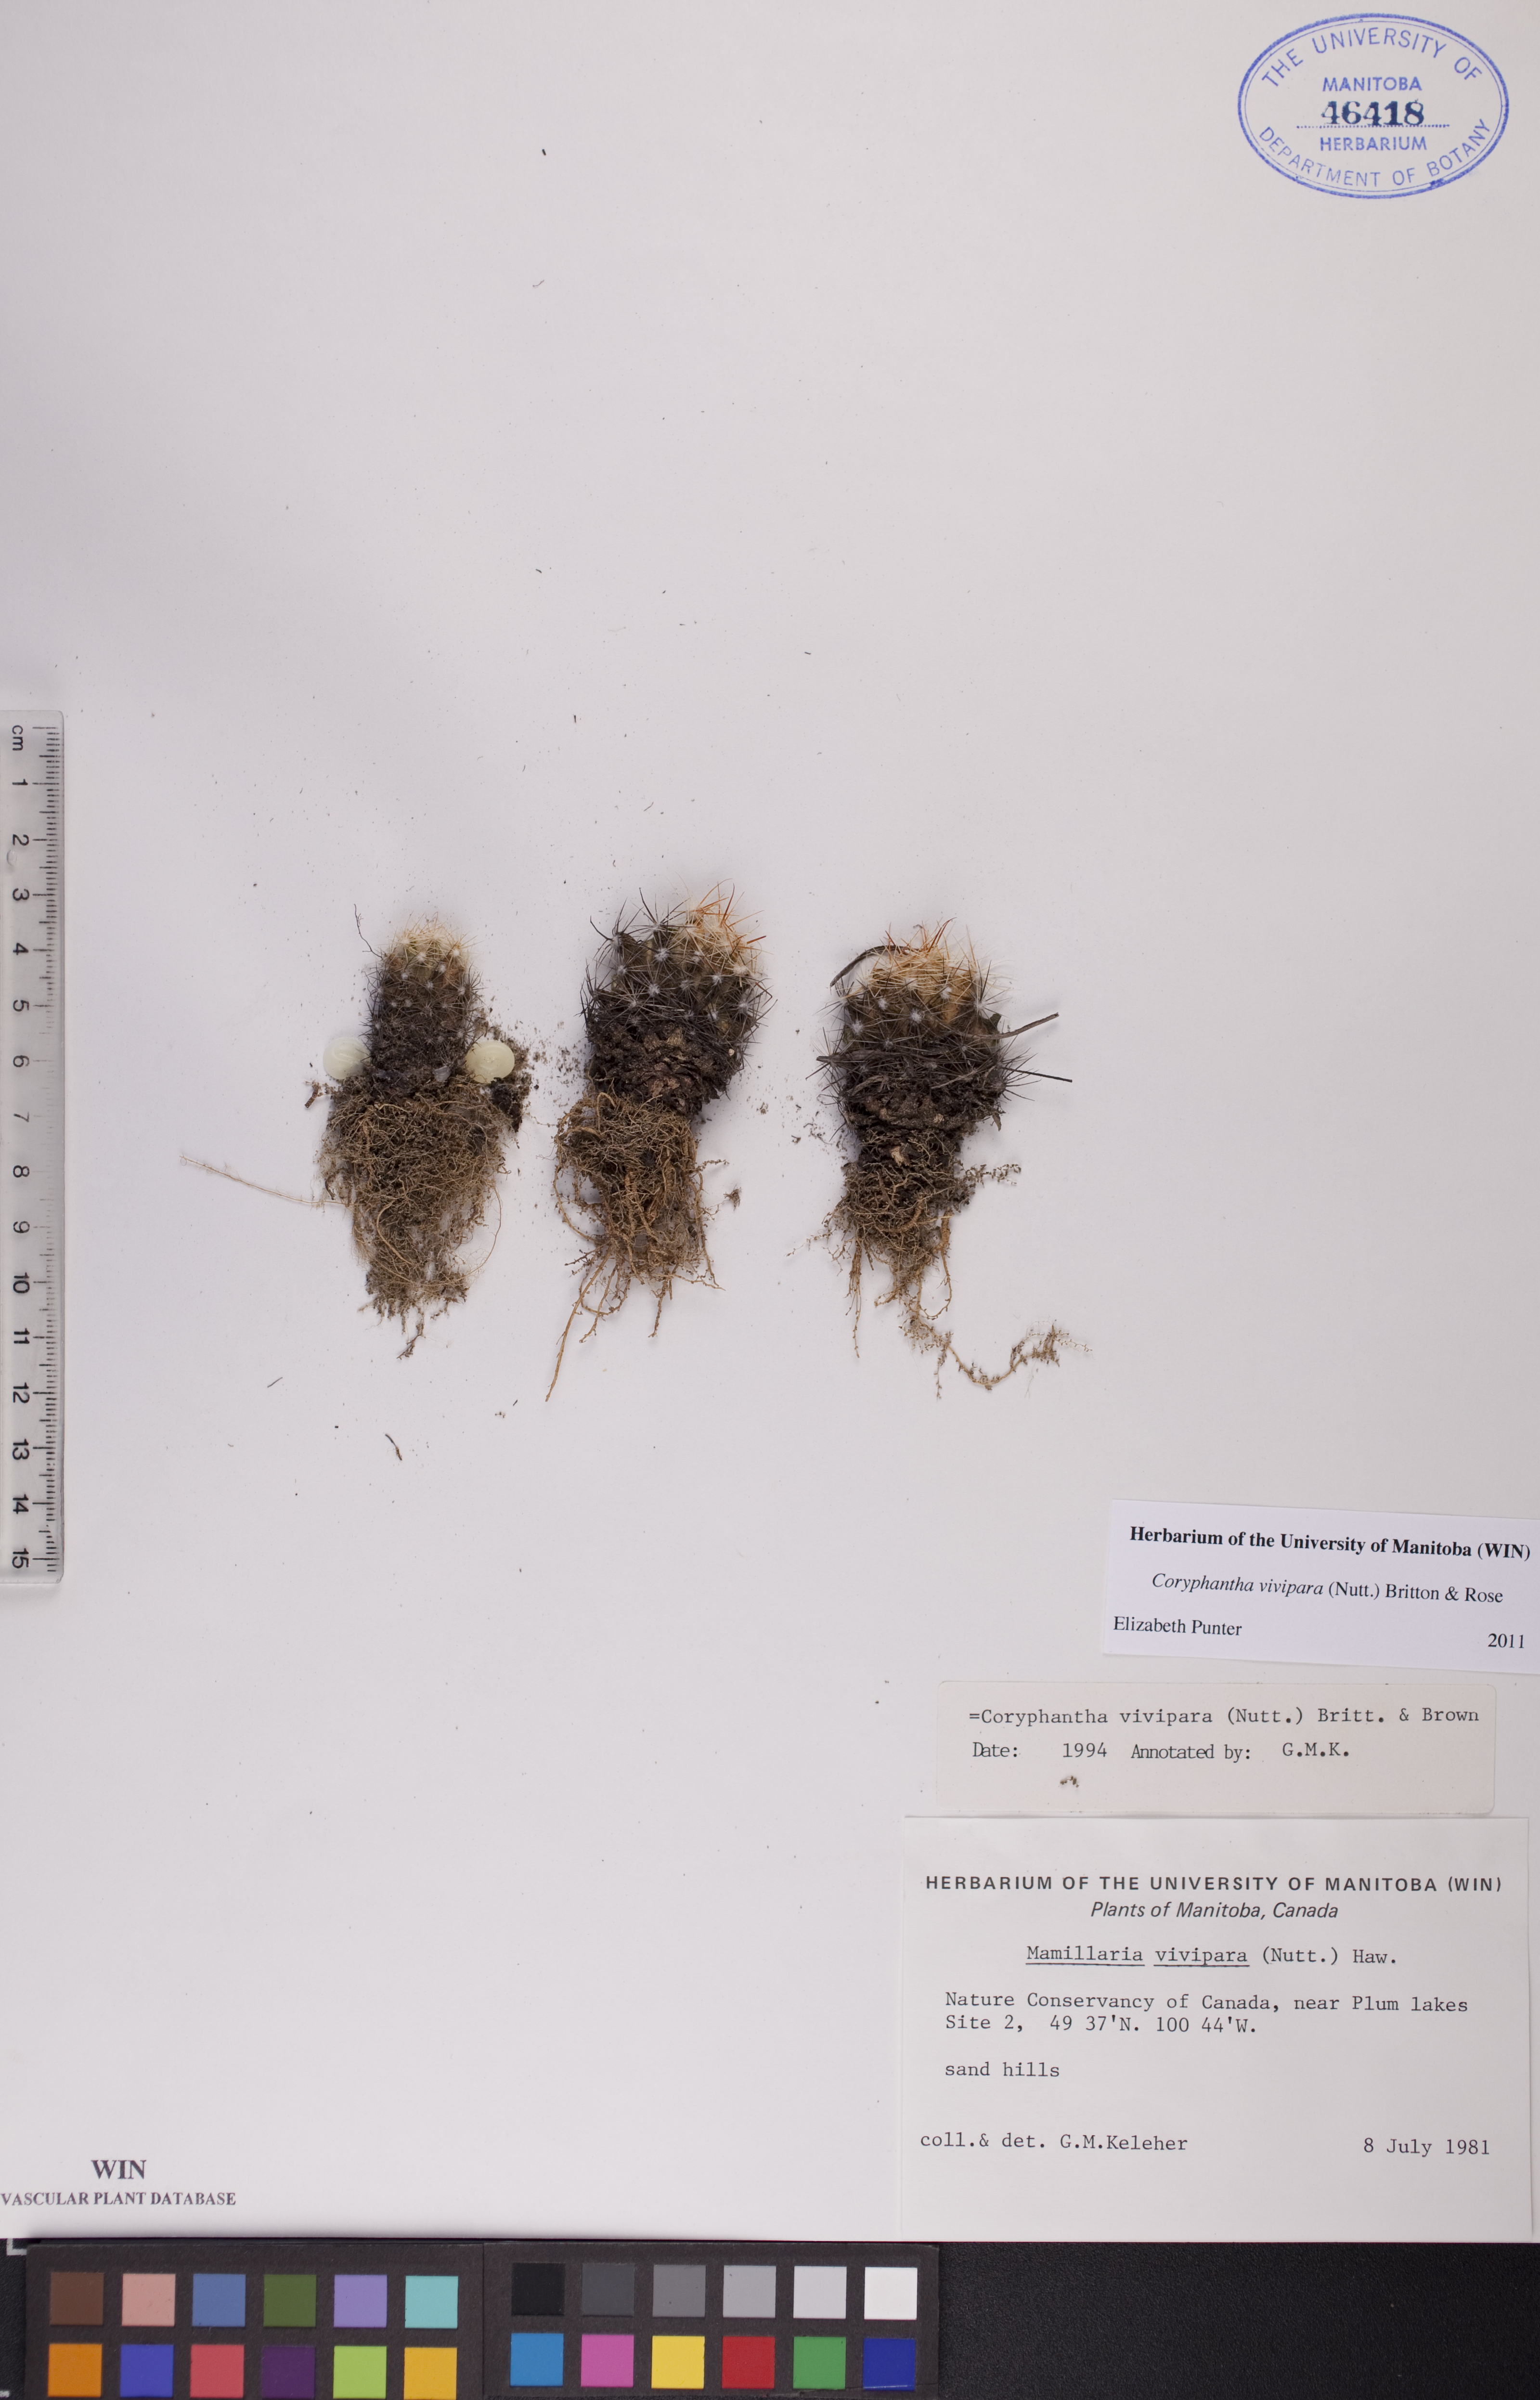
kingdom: Plantae
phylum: Tracheophyta
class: Magnoliopsida
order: Caryophyllales
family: Cactaceae
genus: Pelecyphora
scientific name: Pelecyphora vivipara
